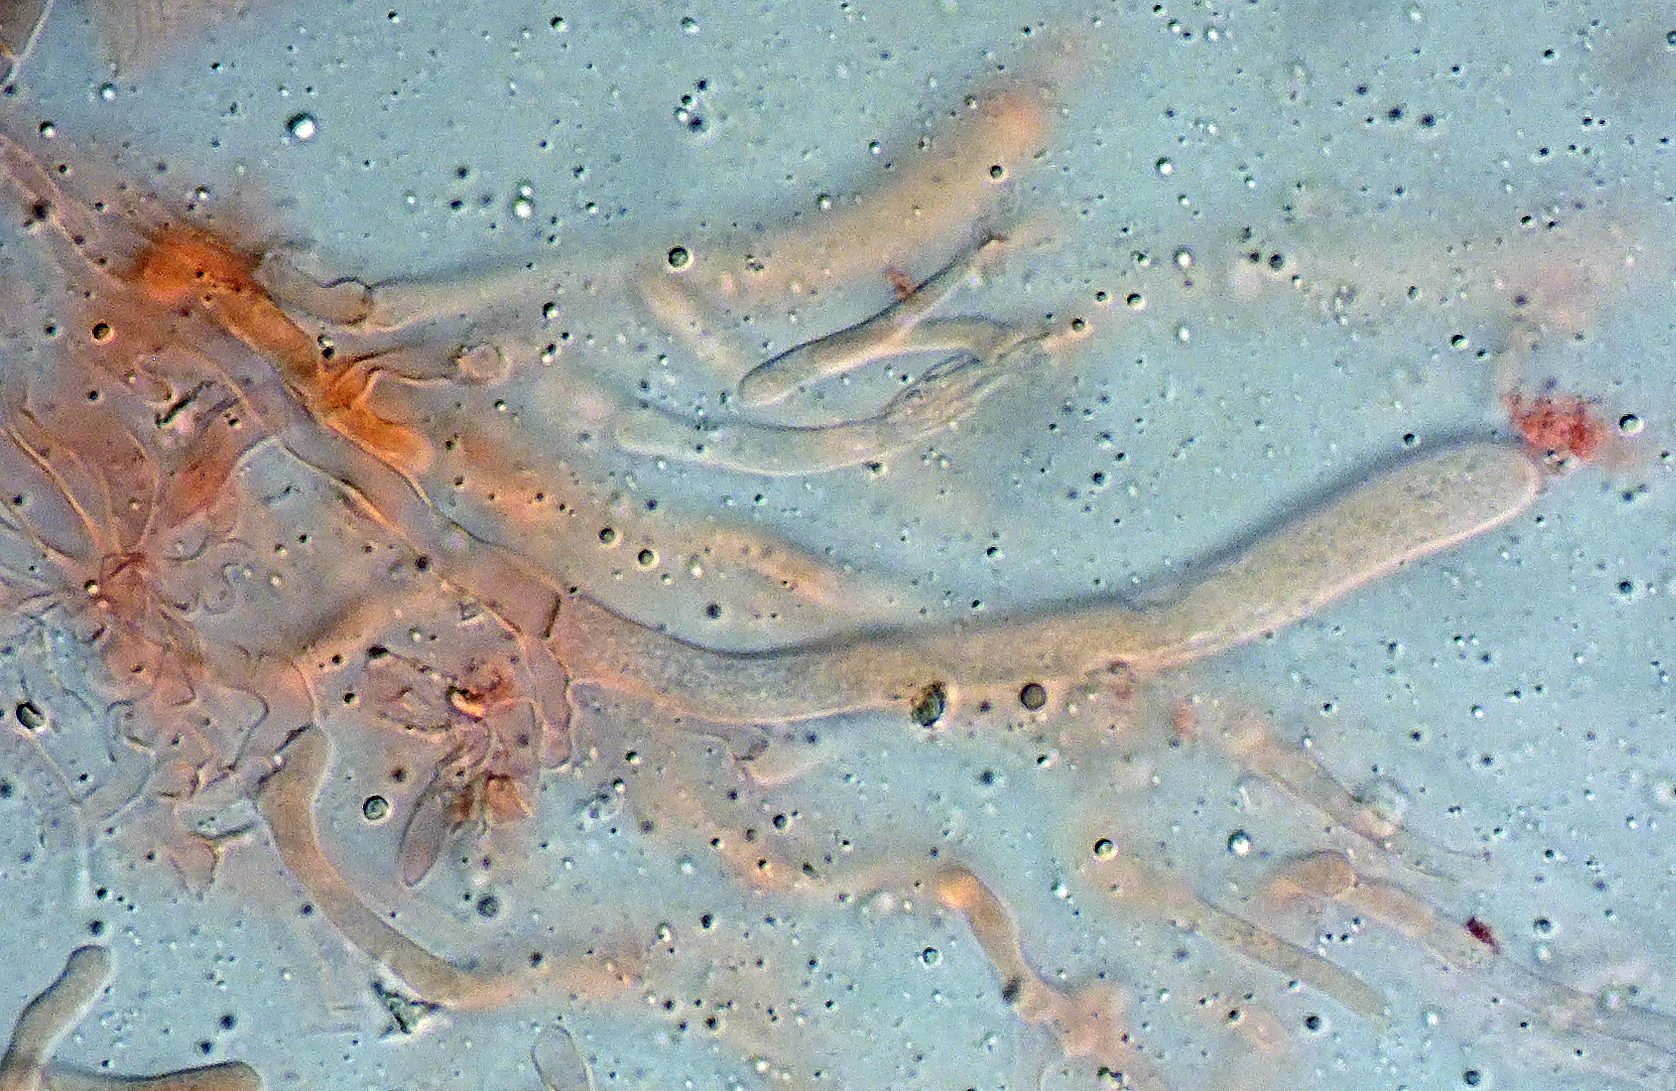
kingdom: Fungi
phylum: Basidiomycota
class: Agaricomycetes
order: Polyporales
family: Meruliaceae
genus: Phlebia
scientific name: Phlebia rufa
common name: ege-åresvamp
